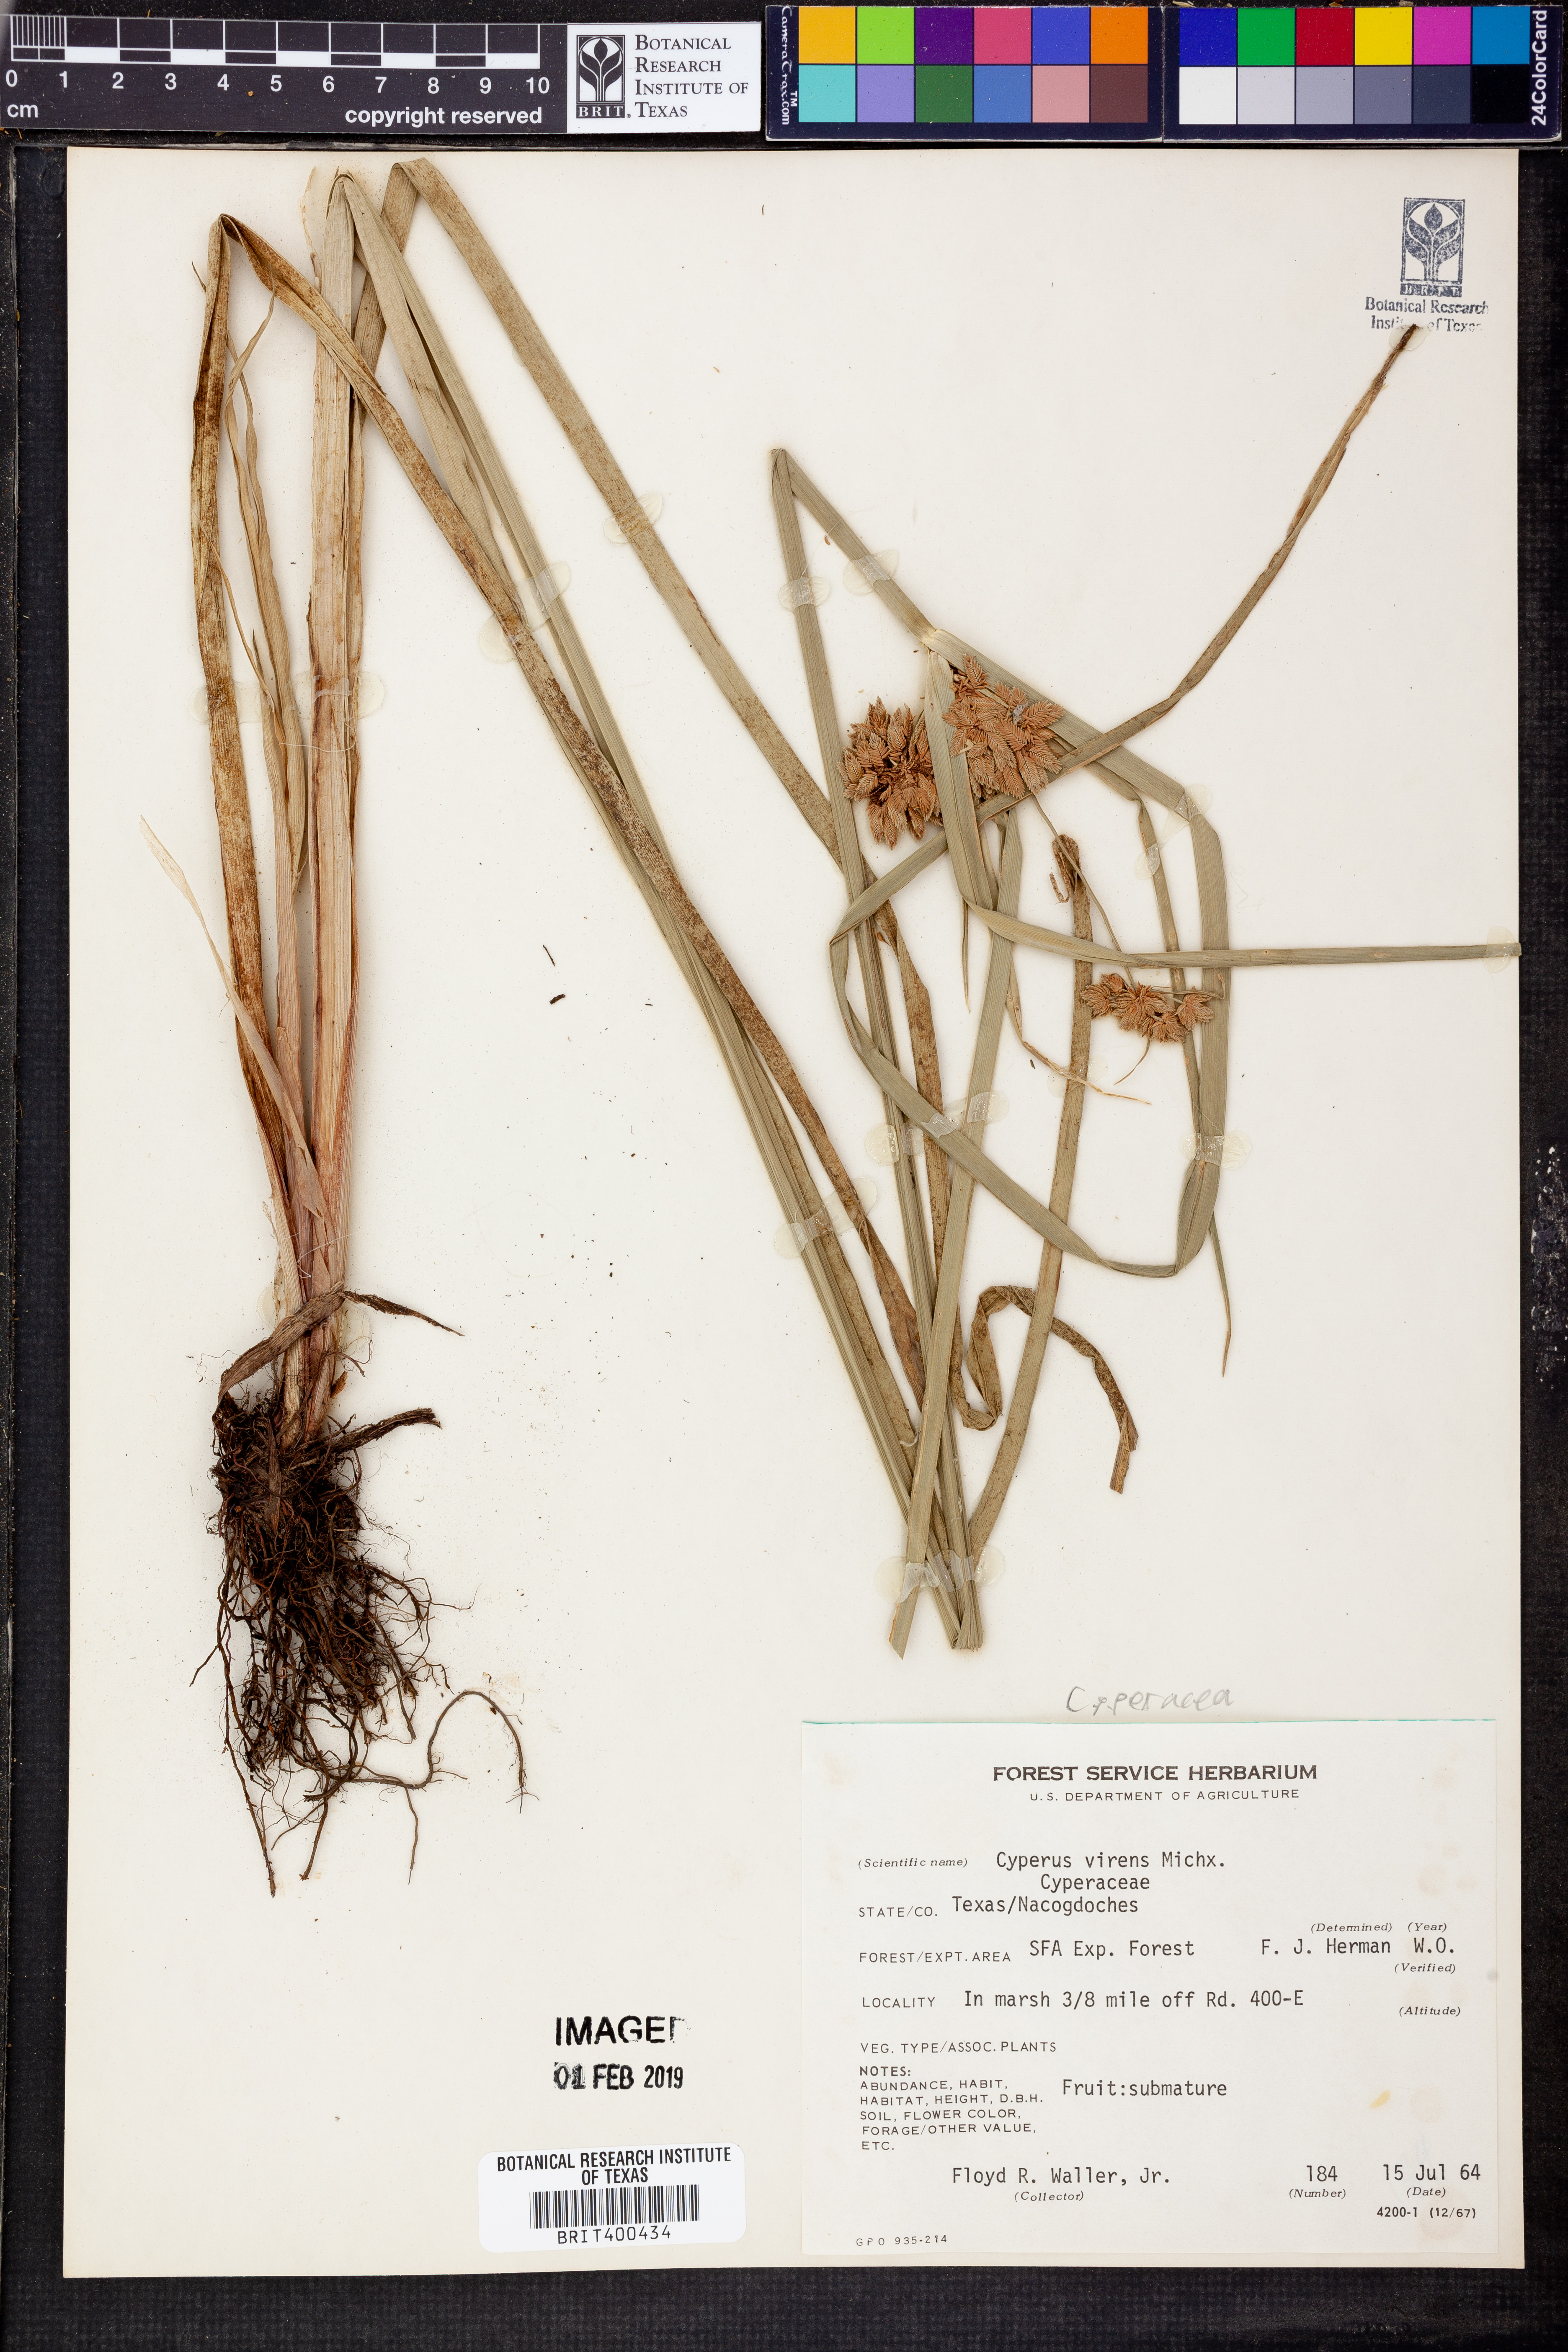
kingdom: Plantae
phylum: Tracheophyta
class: Liliopsida
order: Poales
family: Cyperaceae
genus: Cyperus
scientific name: Cyperus virens
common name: Green flatsedge
